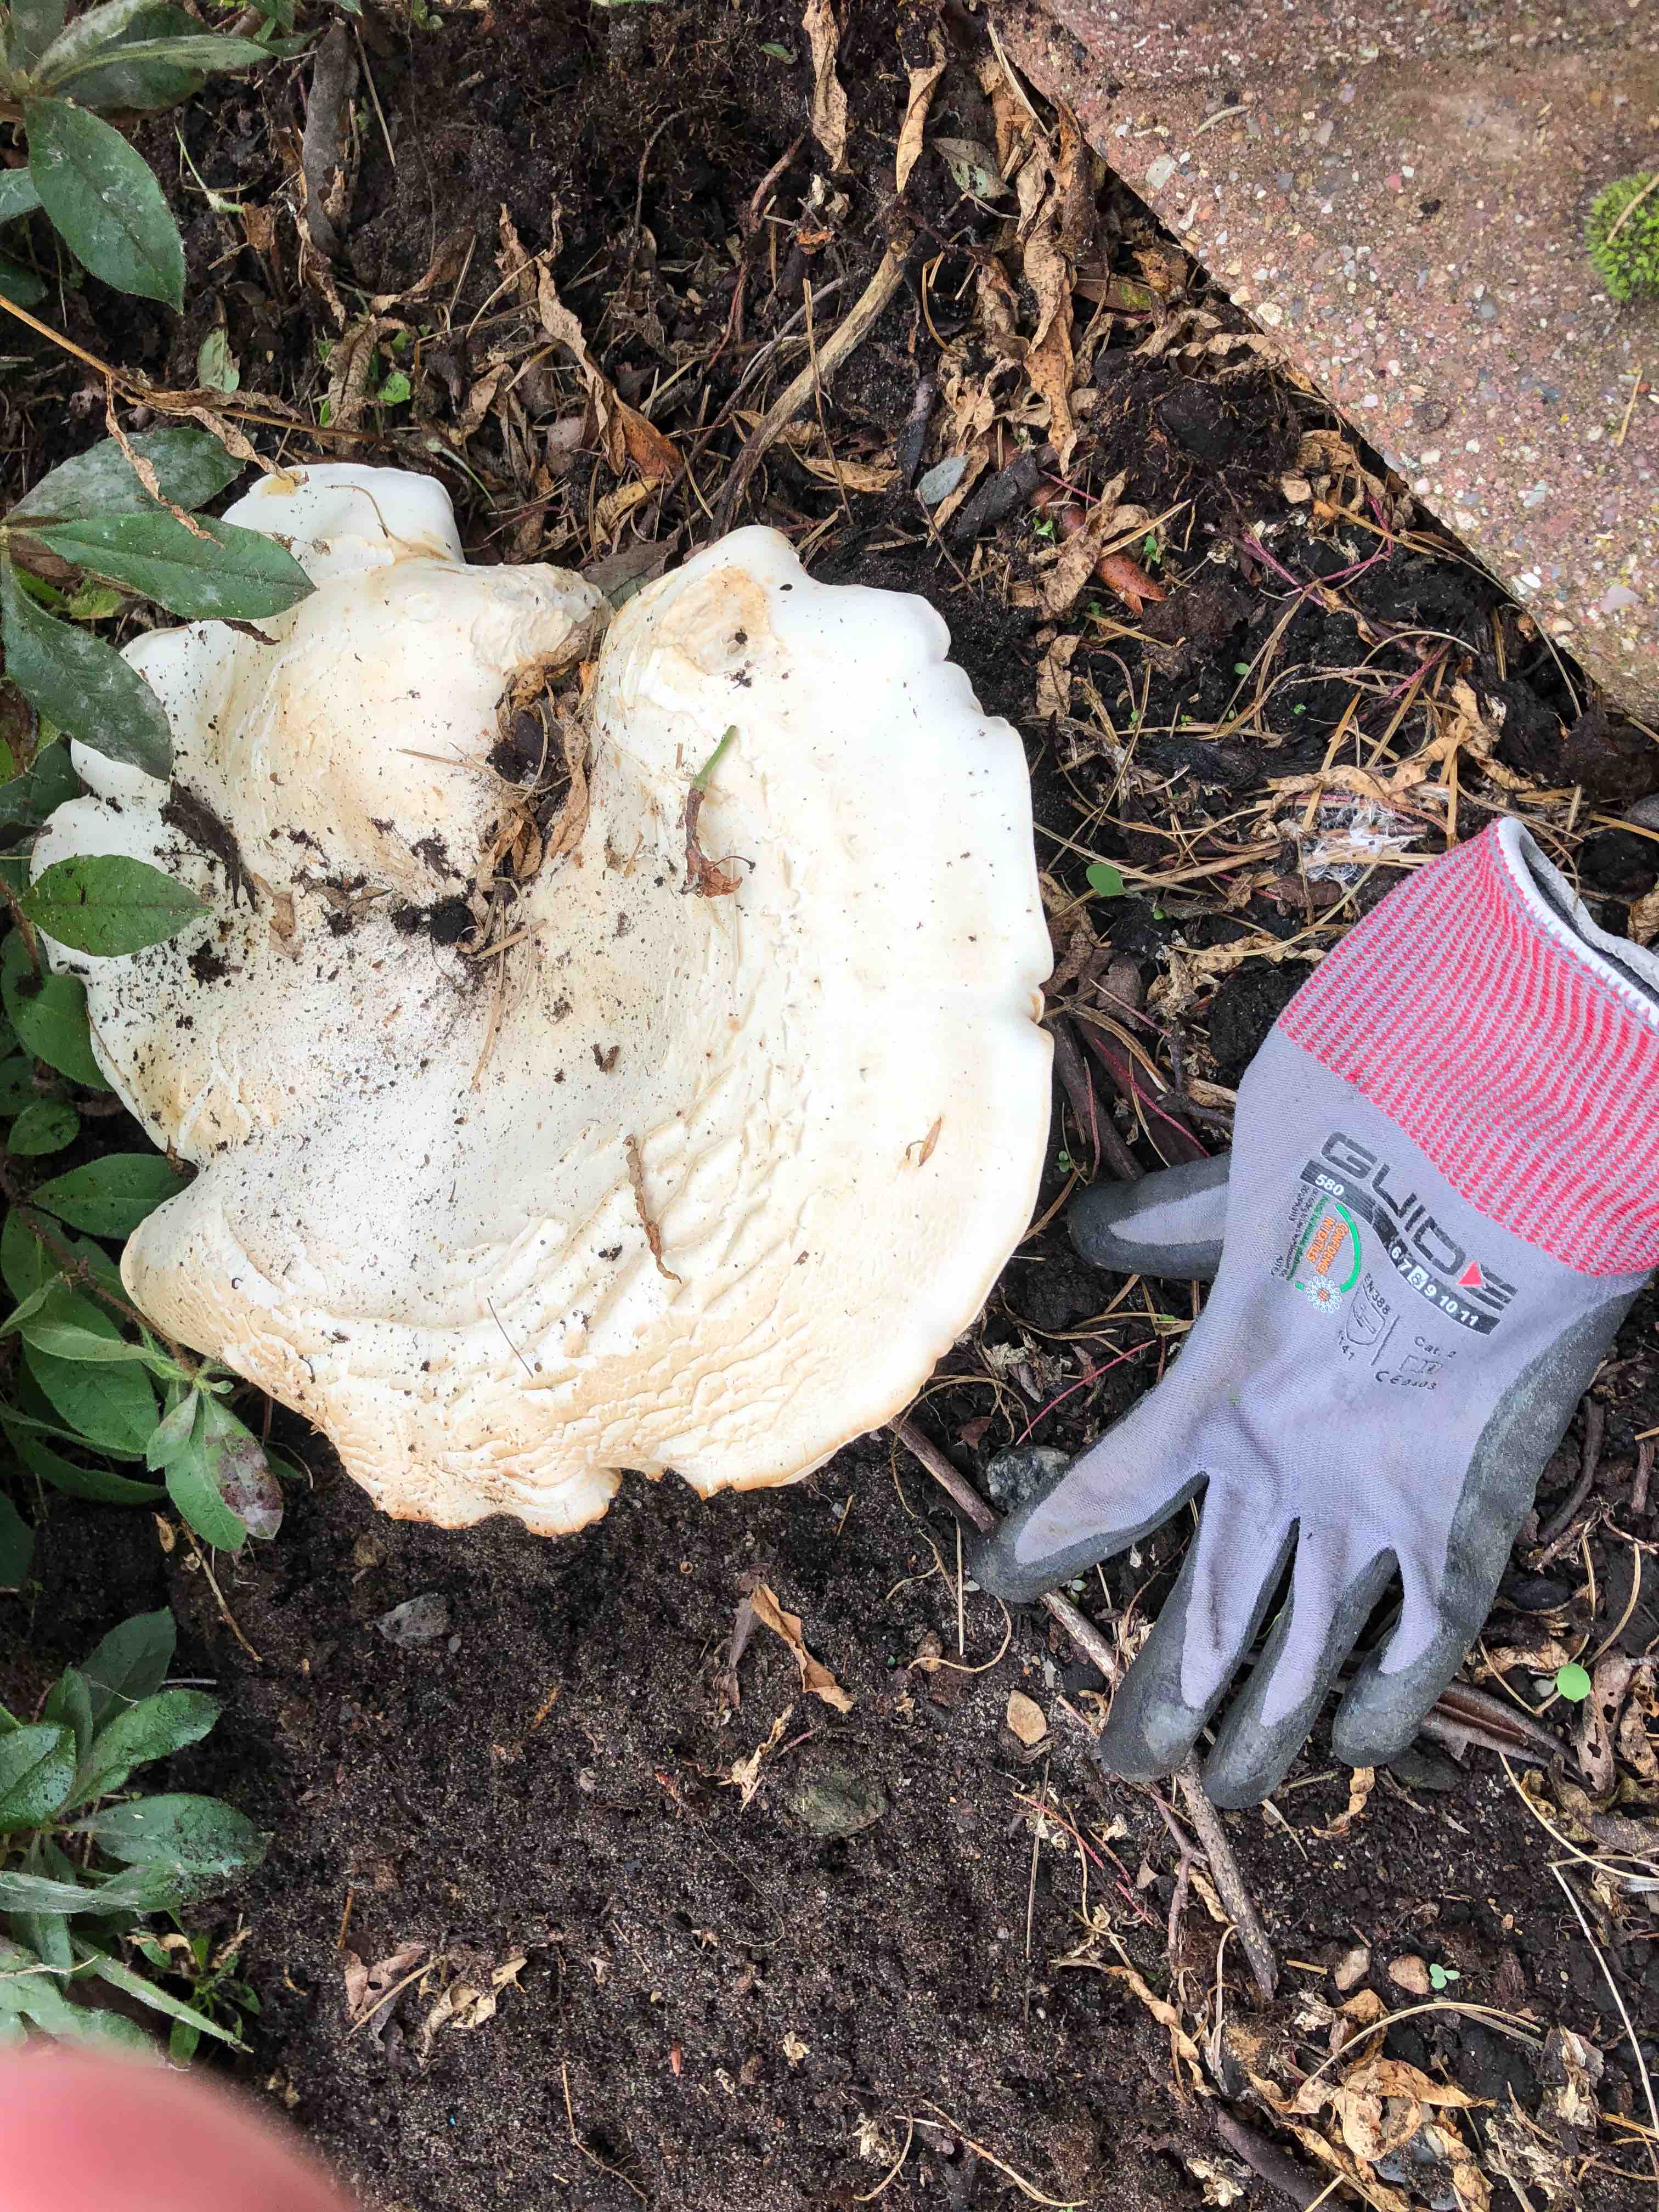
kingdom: Fungi
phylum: Basidiomycota
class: Agaricomycetes
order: Agaricales
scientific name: Agaricales
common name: champignonordenen
